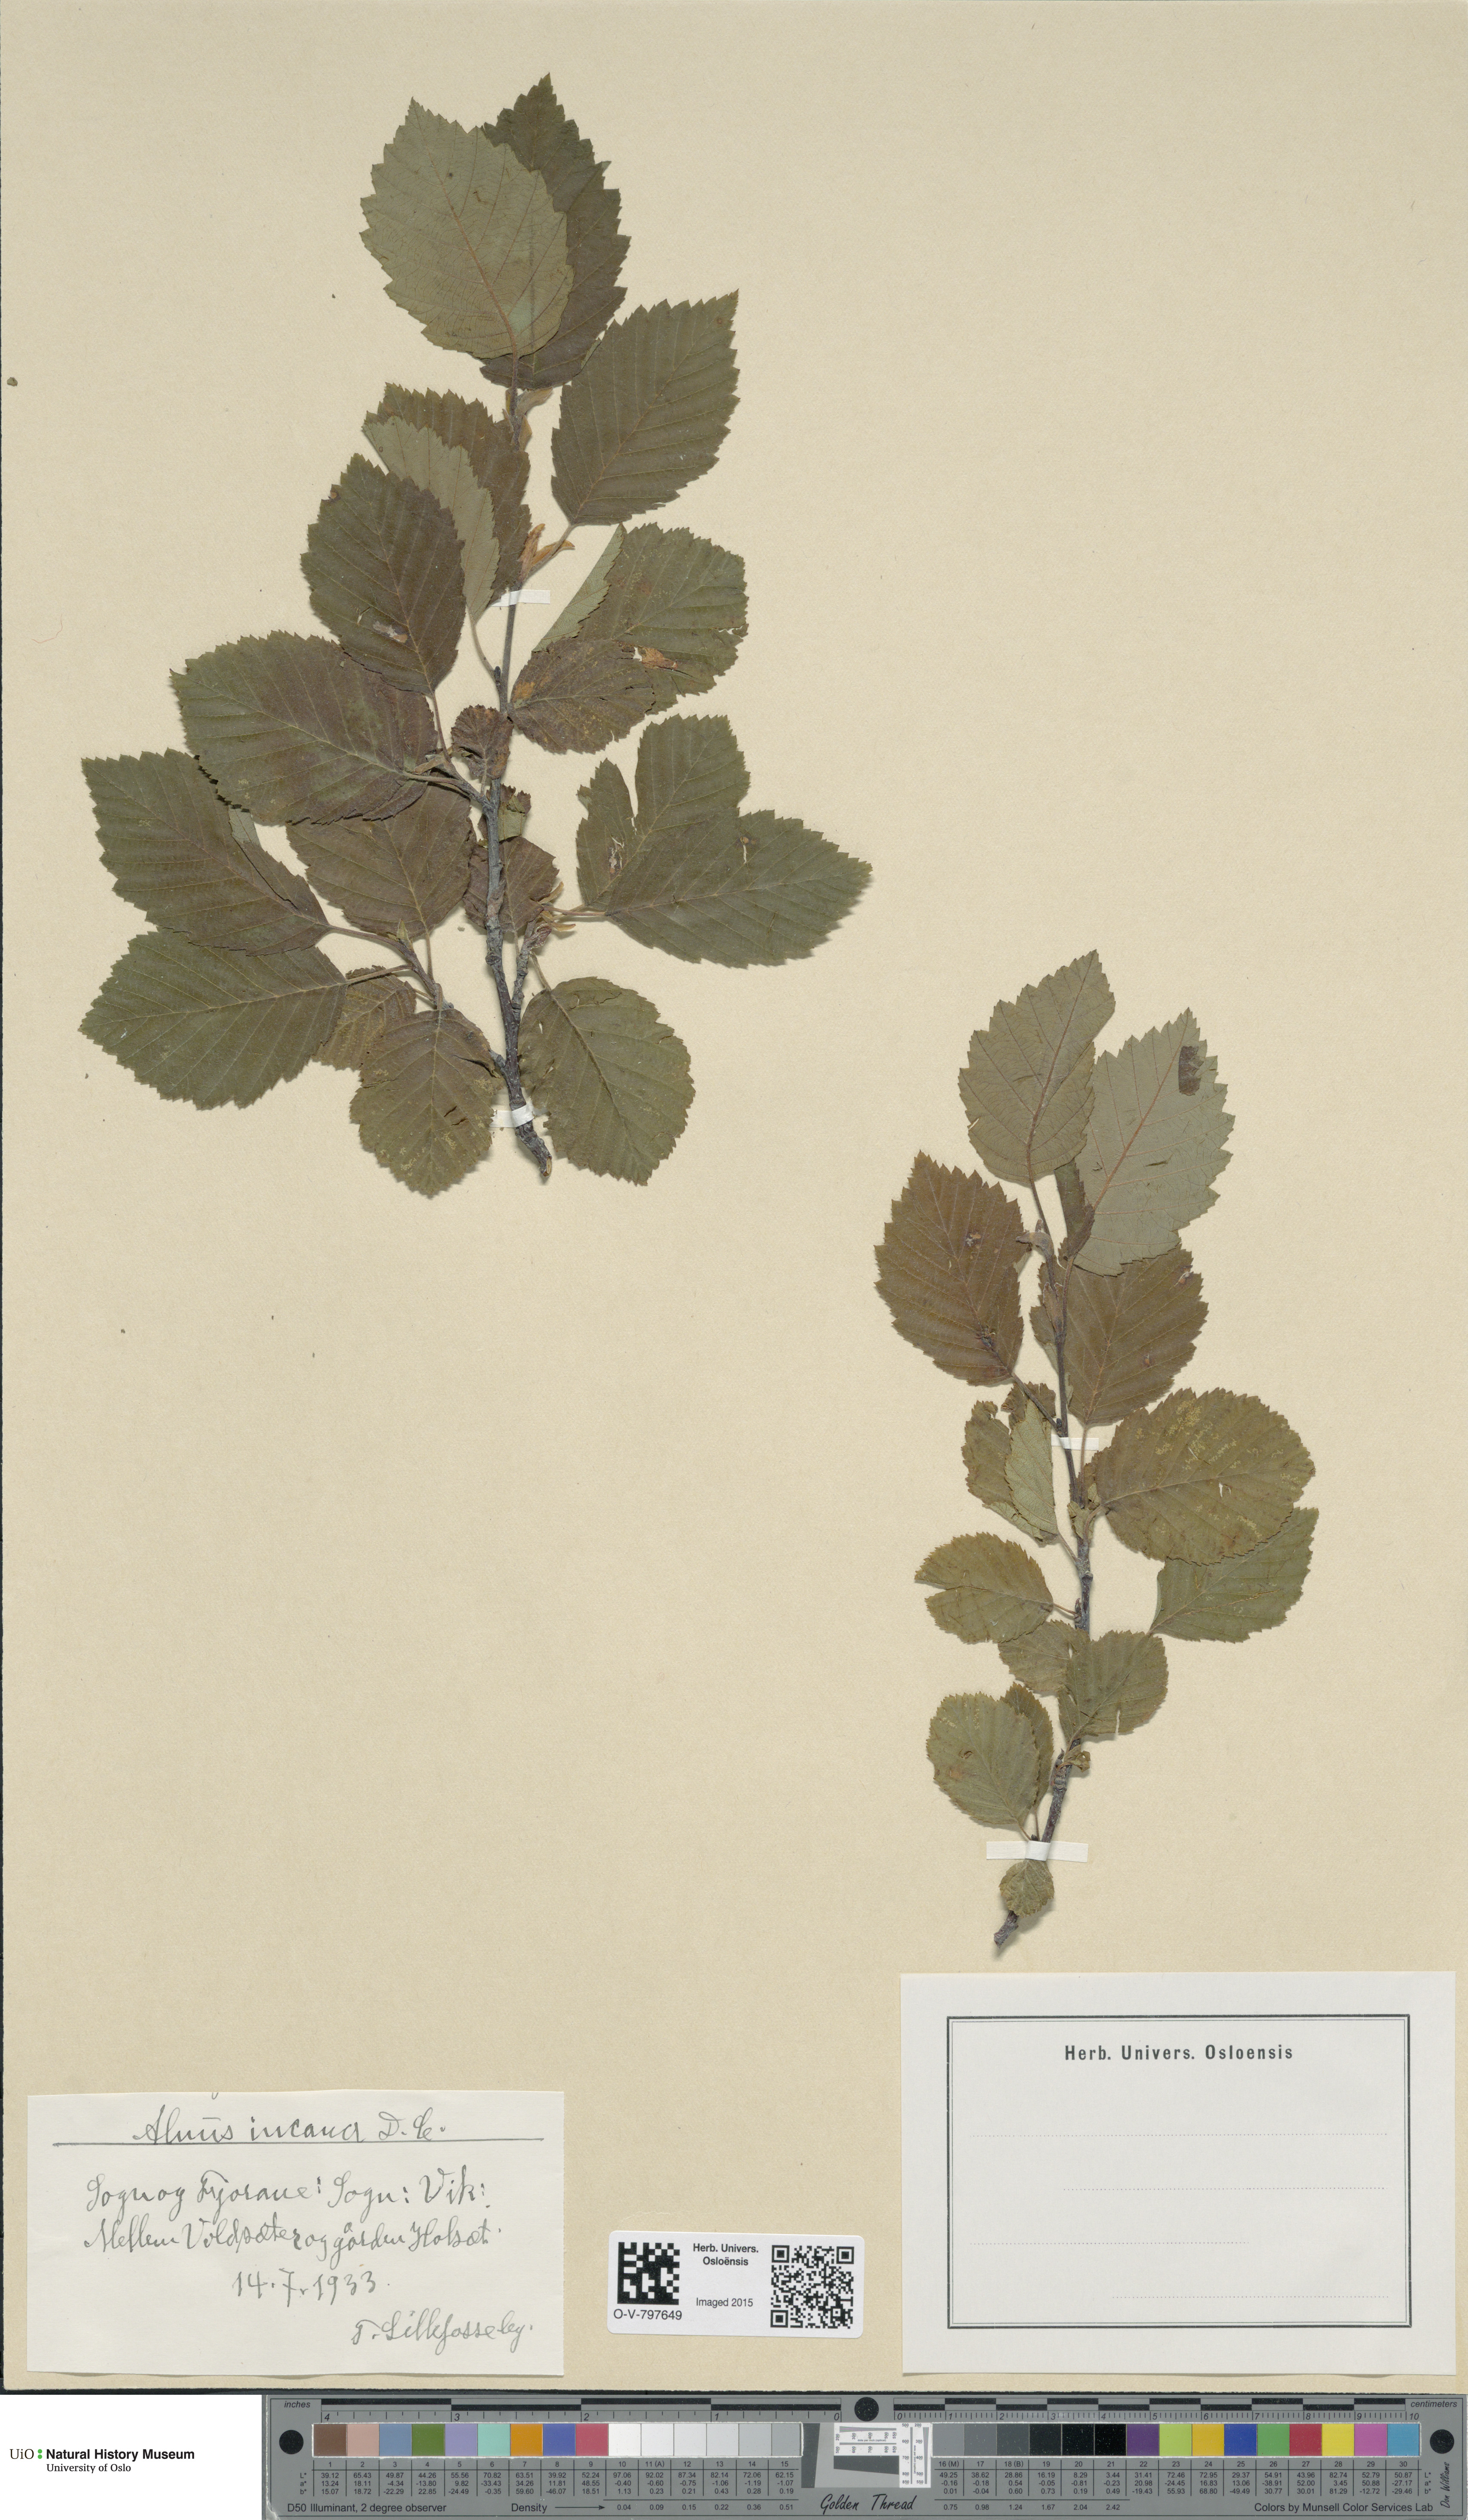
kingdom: Plantae
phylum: Tracheophyta
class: Magnoliopsida
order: Fagales
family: Betulaceae
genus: Alnus
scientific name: Alnus incana
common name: Grey alder
